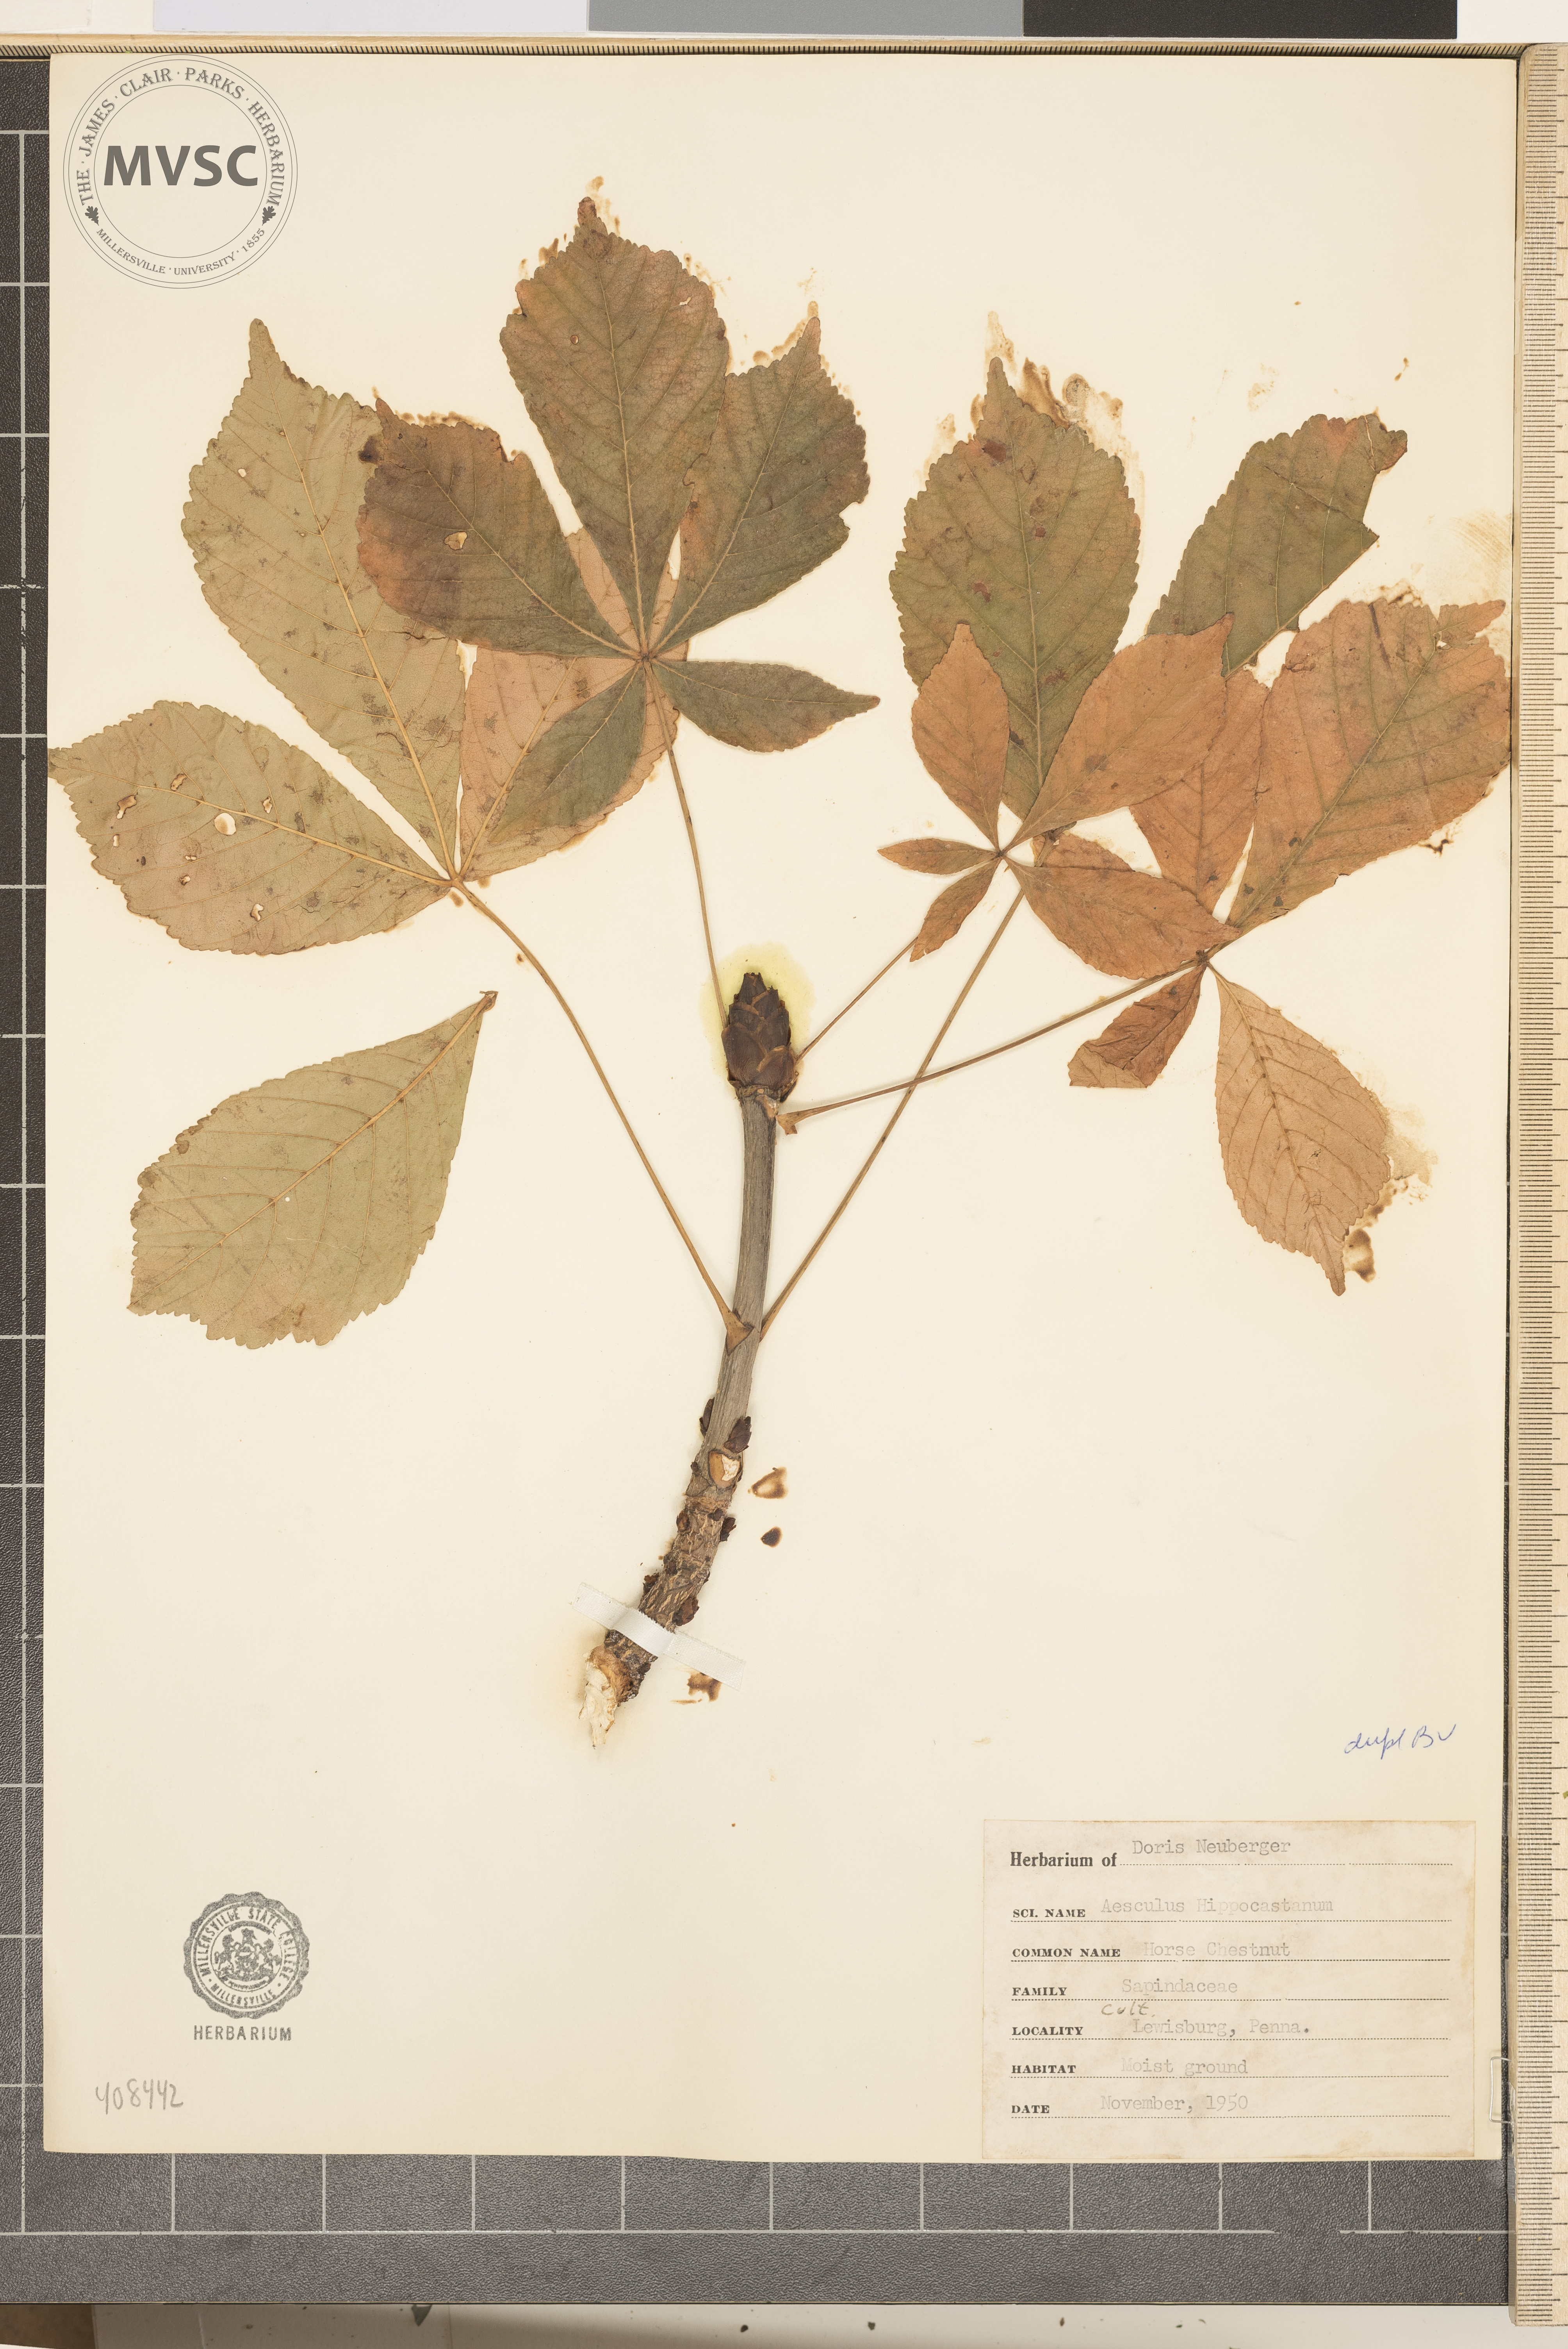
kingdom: Plantae
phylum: Tracheophyta
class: Magnoliopsida
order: Sapindales
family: Sapindaceae
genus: Aesculus
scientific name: Aesculus hippocastanum
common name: Horse-chestnut
